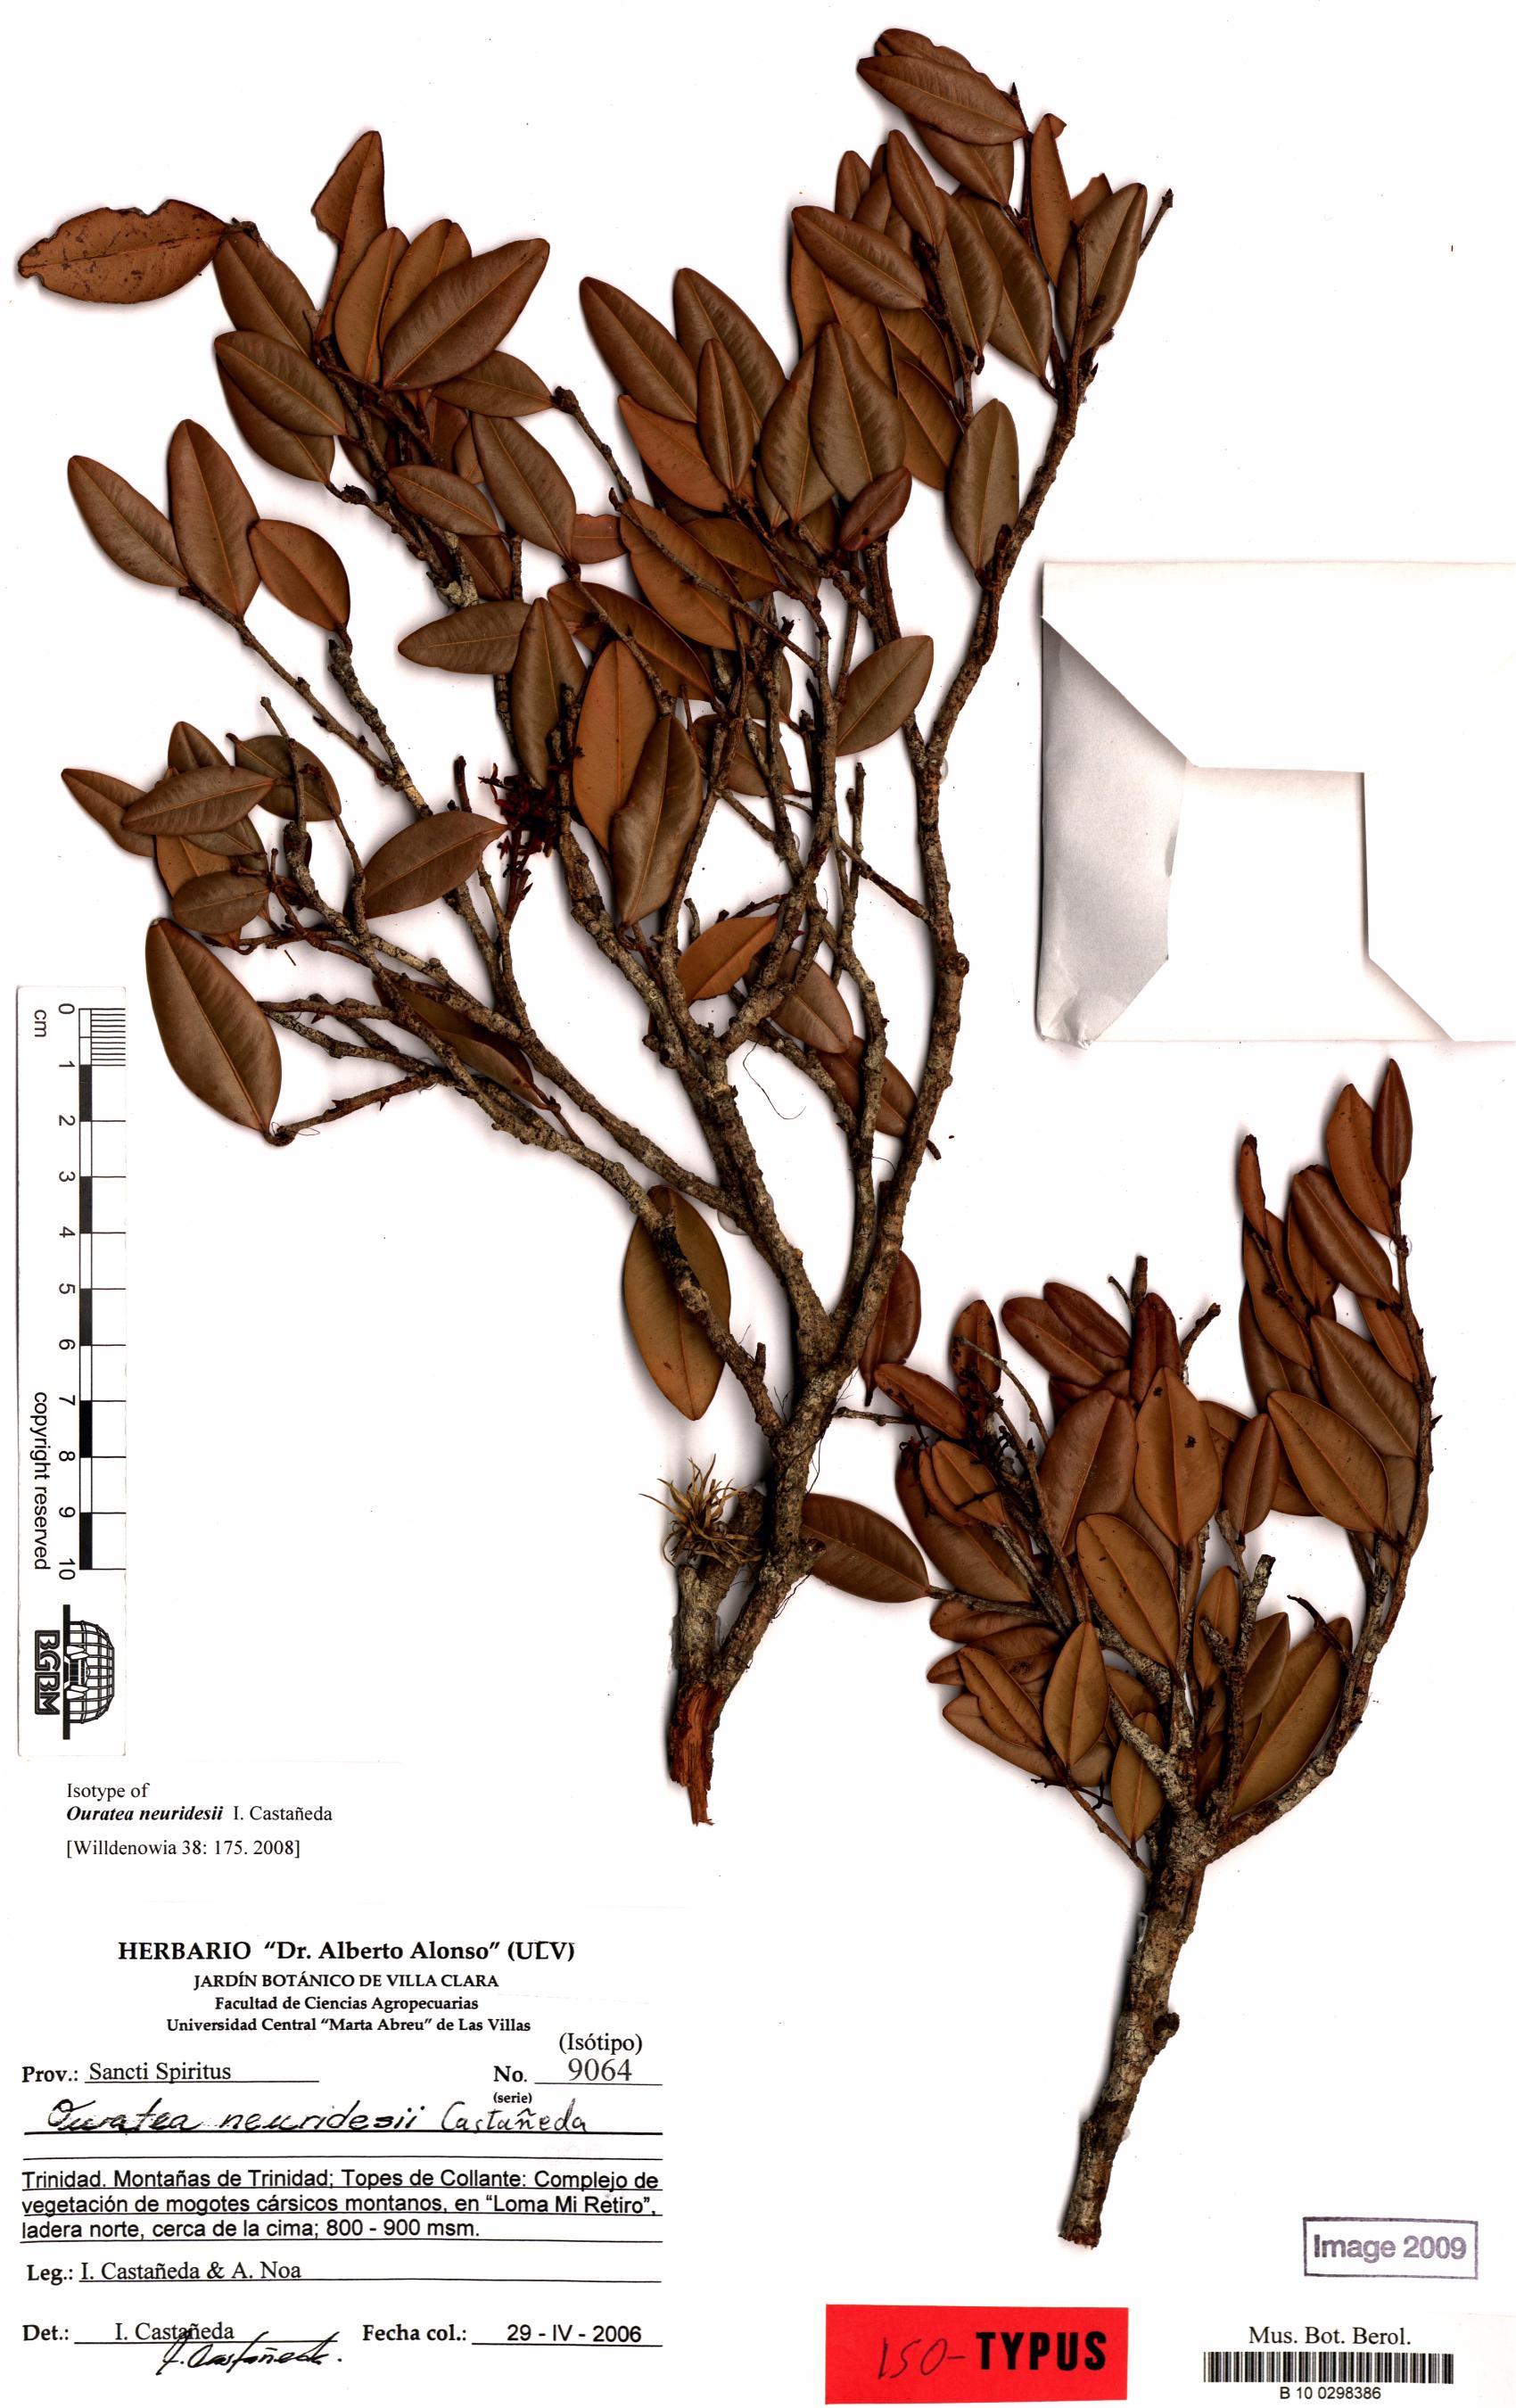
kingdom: Plantae
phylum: Tracheophyta
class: Magnoliopsida
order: Malpighiales
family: Ochnaceae
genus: Ouratea
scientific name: Ouratea neuridesii
